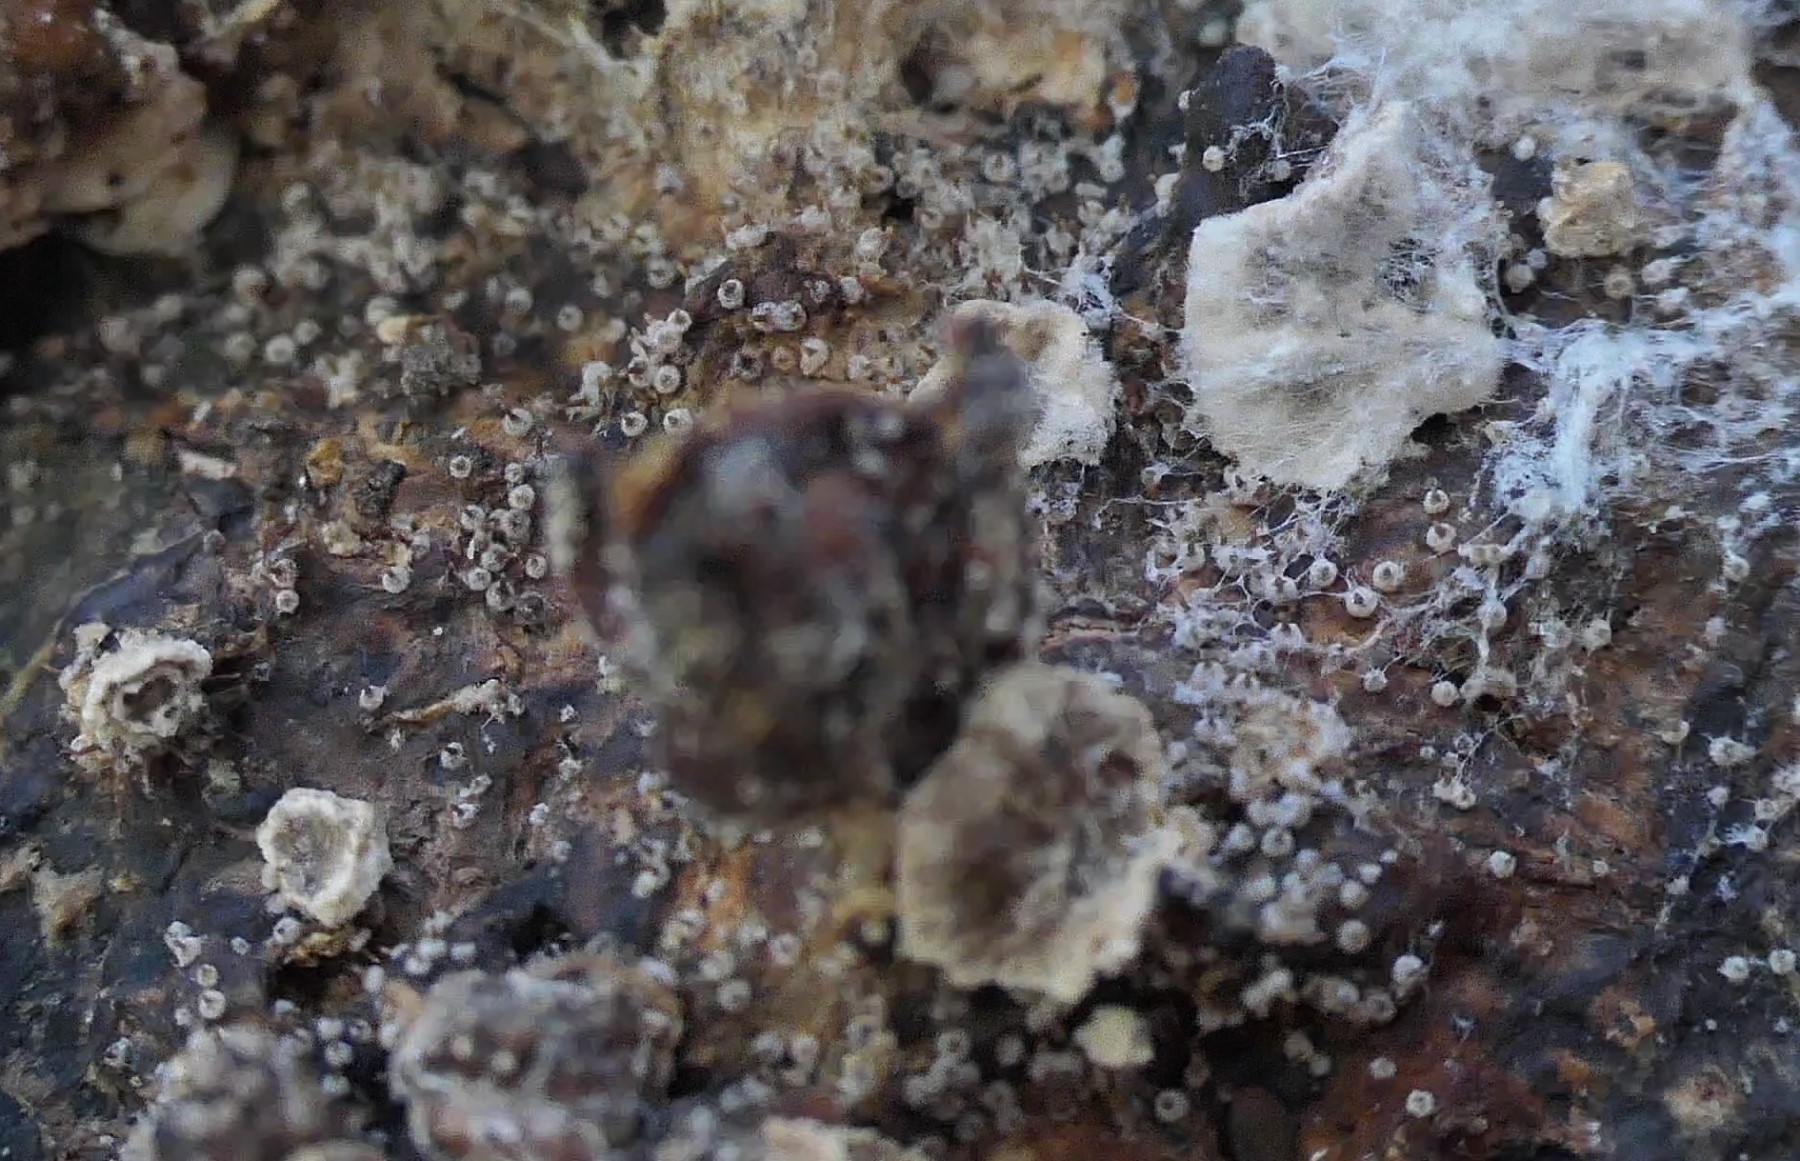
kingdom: Fungi
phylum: Ascomycota
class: Sordariomycetes
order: Melanosporales
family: Ceratostomataceae
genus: Melanospora
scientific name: Melanospora lagenaria
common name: tæppe-næbkerne
